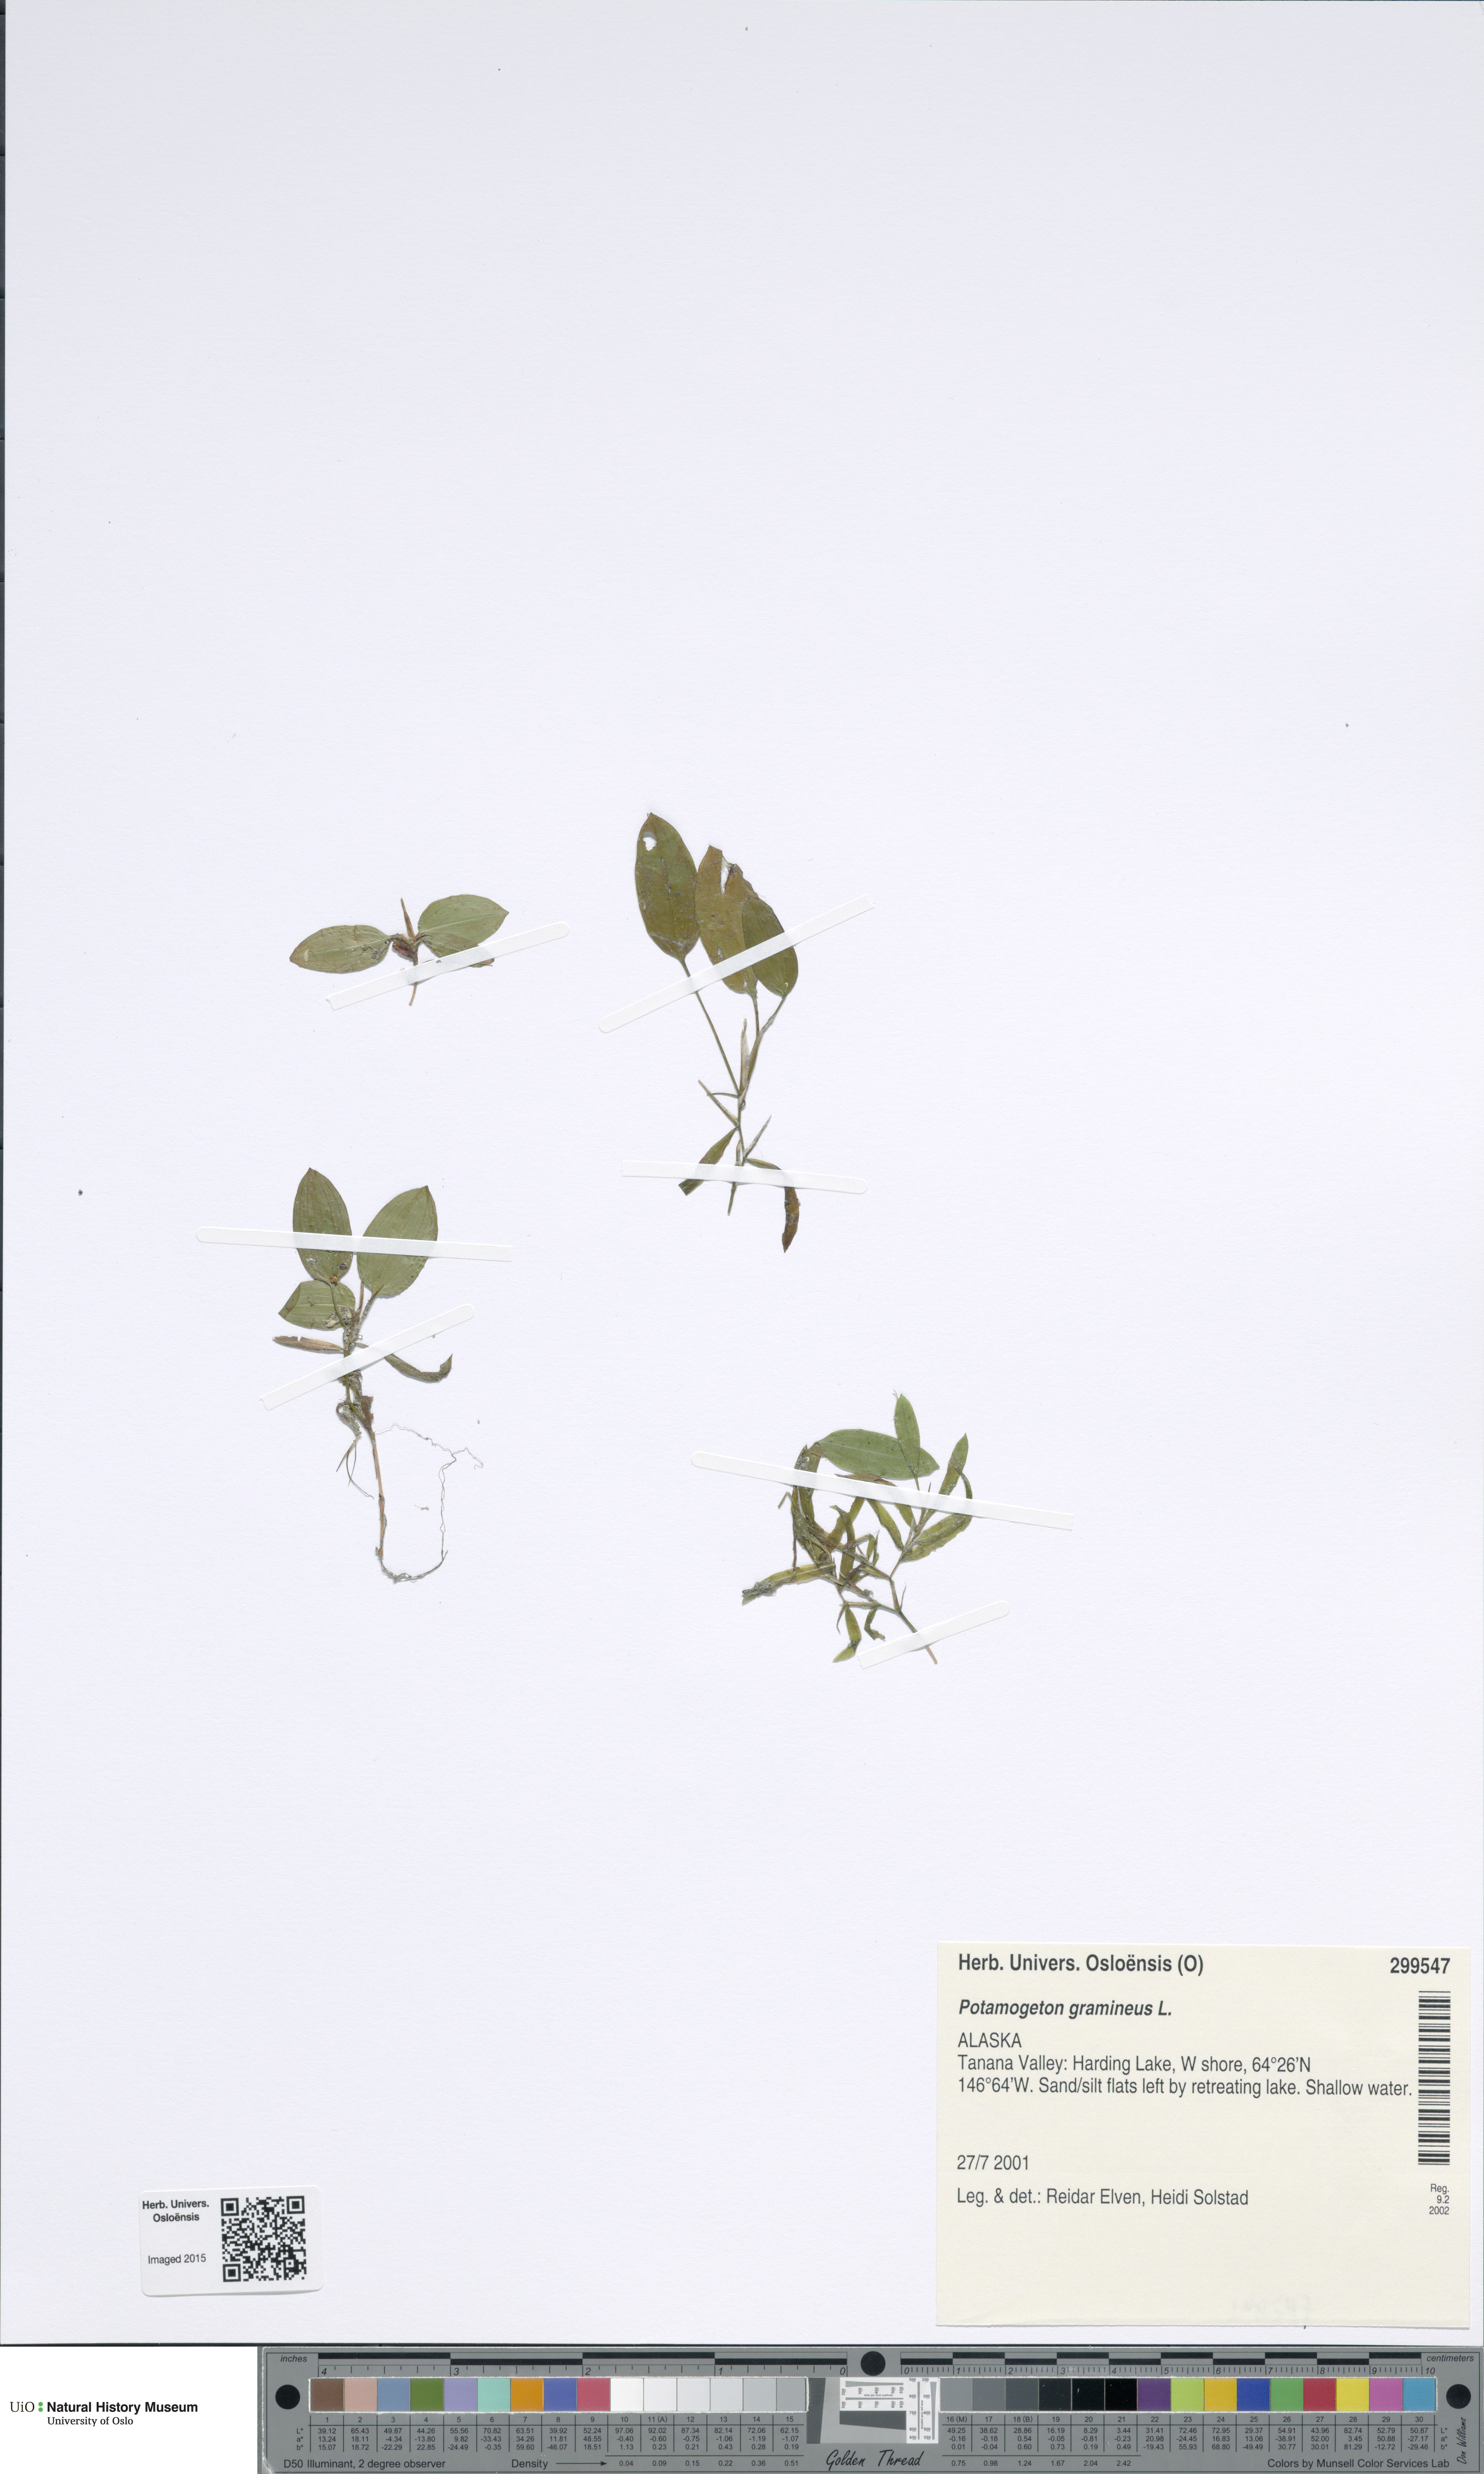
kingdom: Plantae
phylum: Tracheophyta
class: Liliopsida
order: Alismatales
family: Potamogetonaceae
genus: Potamogeton
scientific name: Potamogeton gramineus
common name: Various-leaved pondweed
